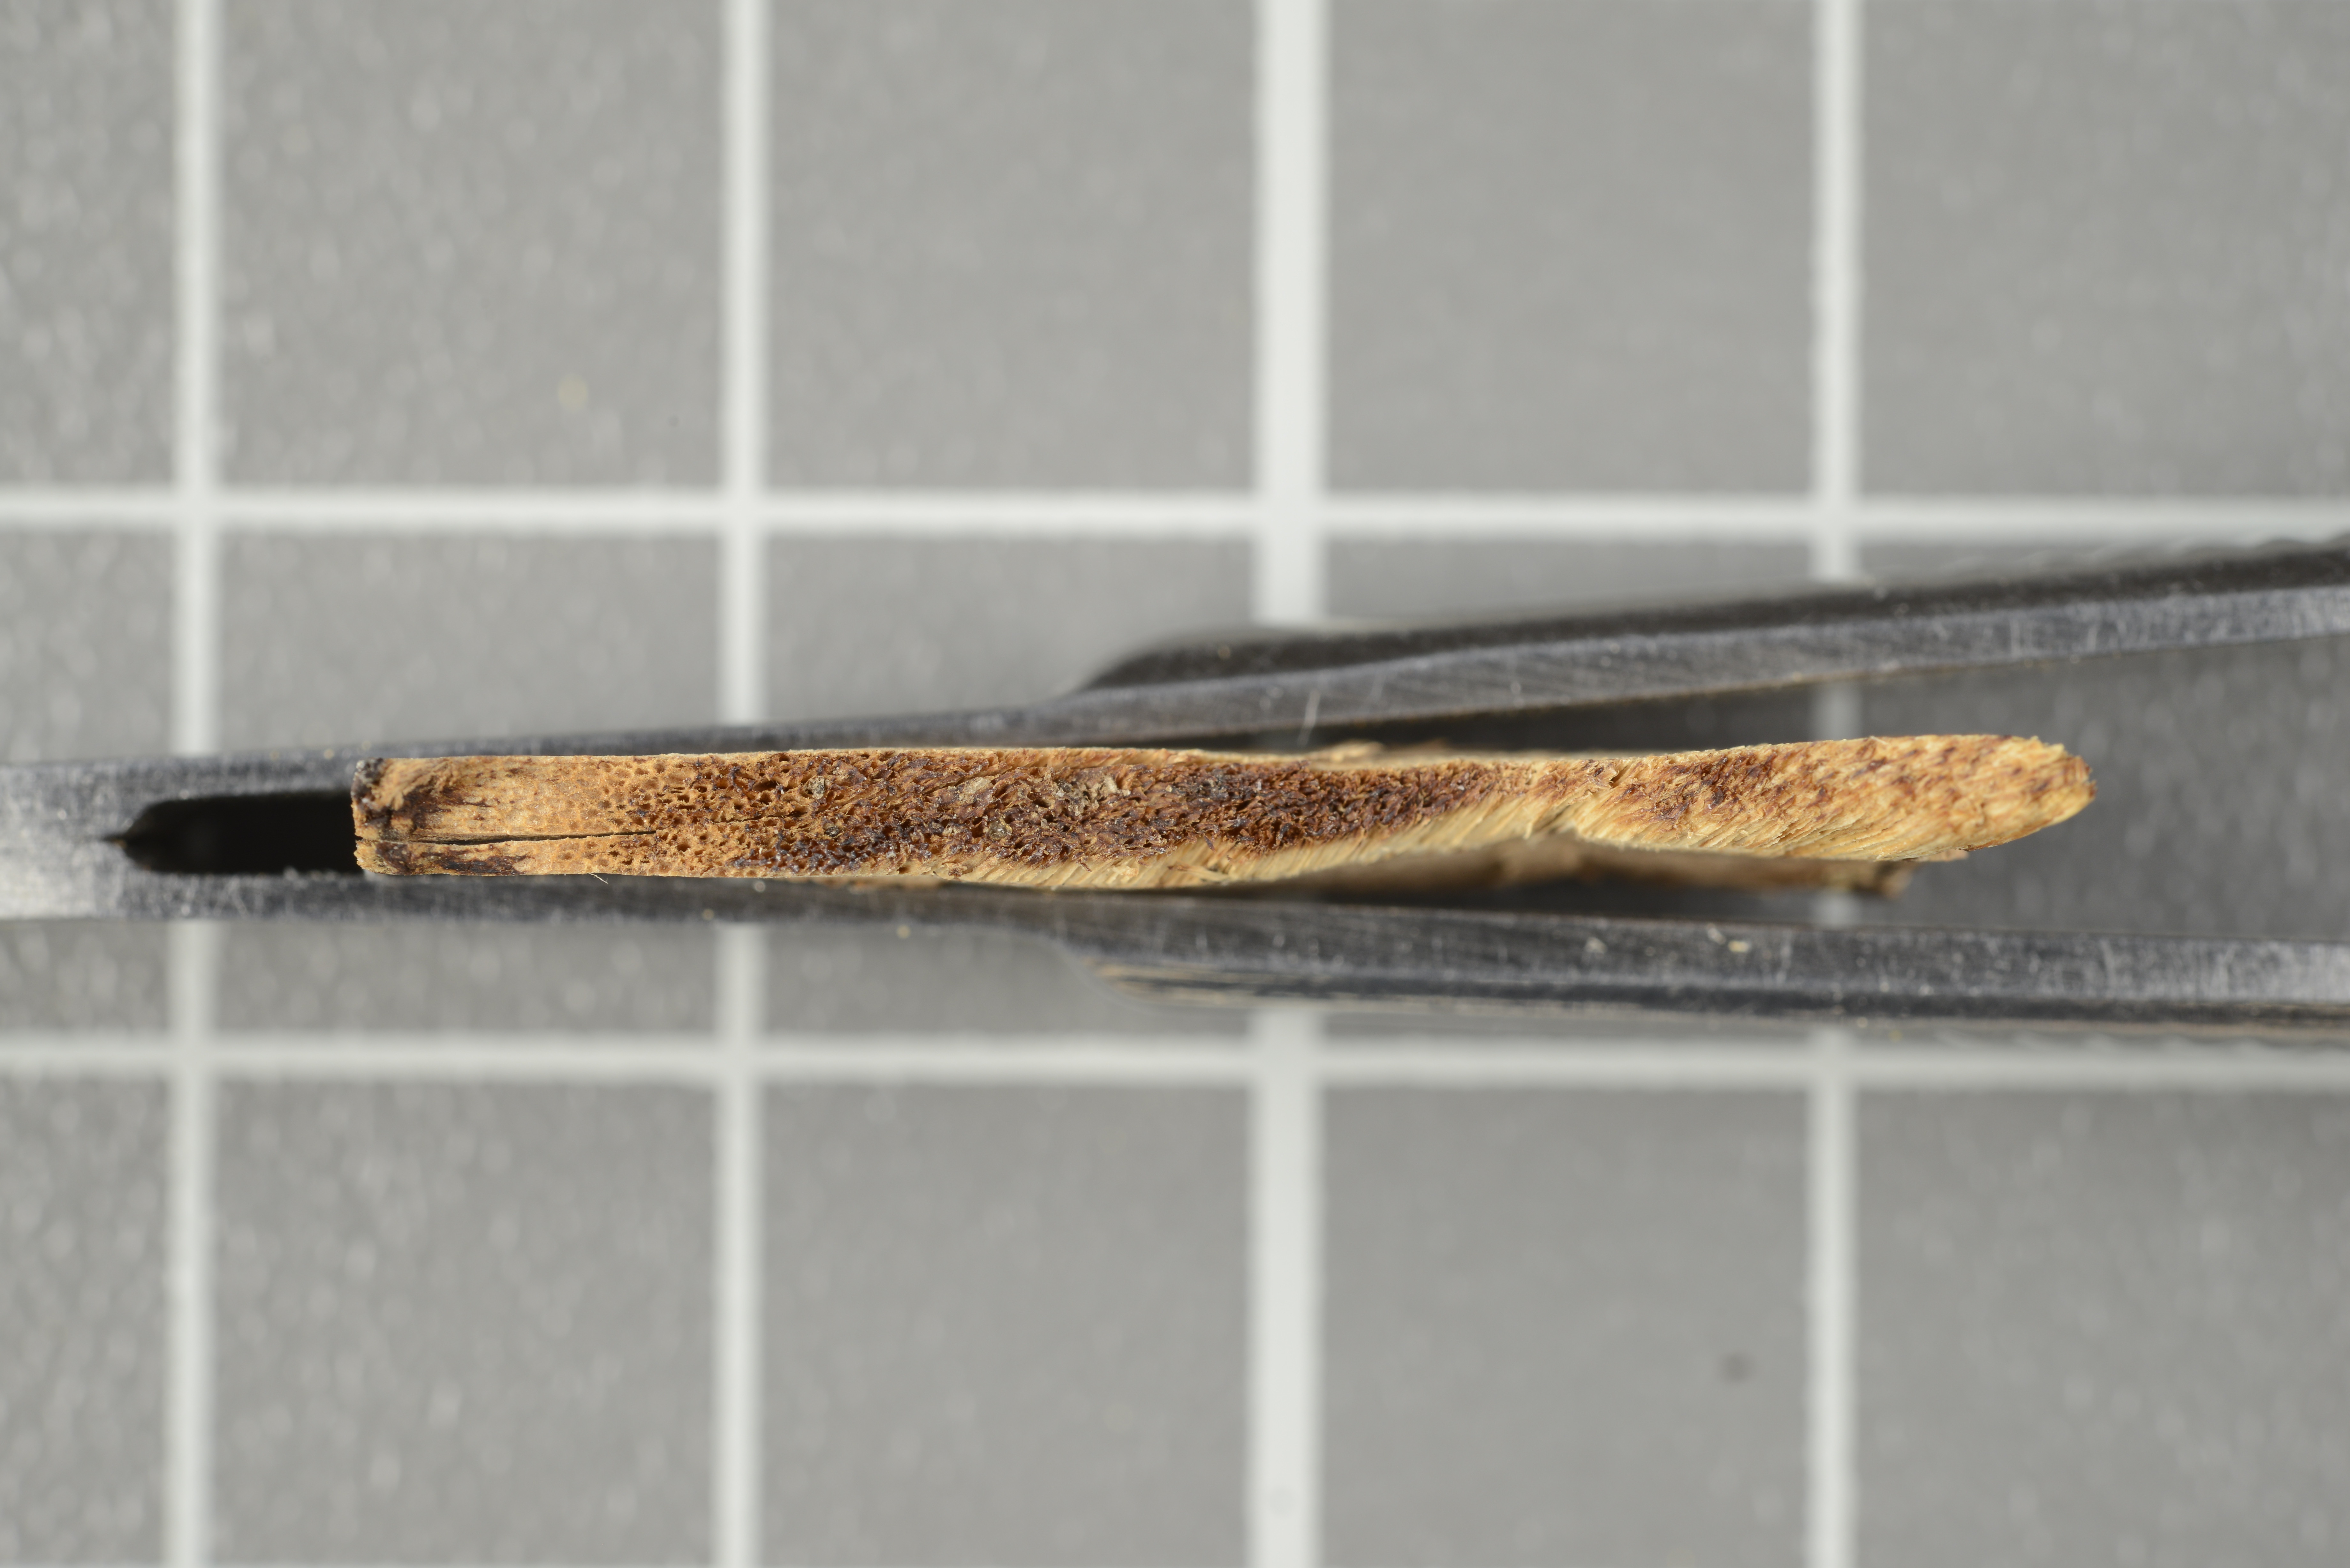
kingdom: Fungi
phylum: Basidiomycota
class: Agaricomycetes
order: Polyporales
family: Meruliaceae
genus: Spongipellis
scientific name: Spongipellis chubutensis
